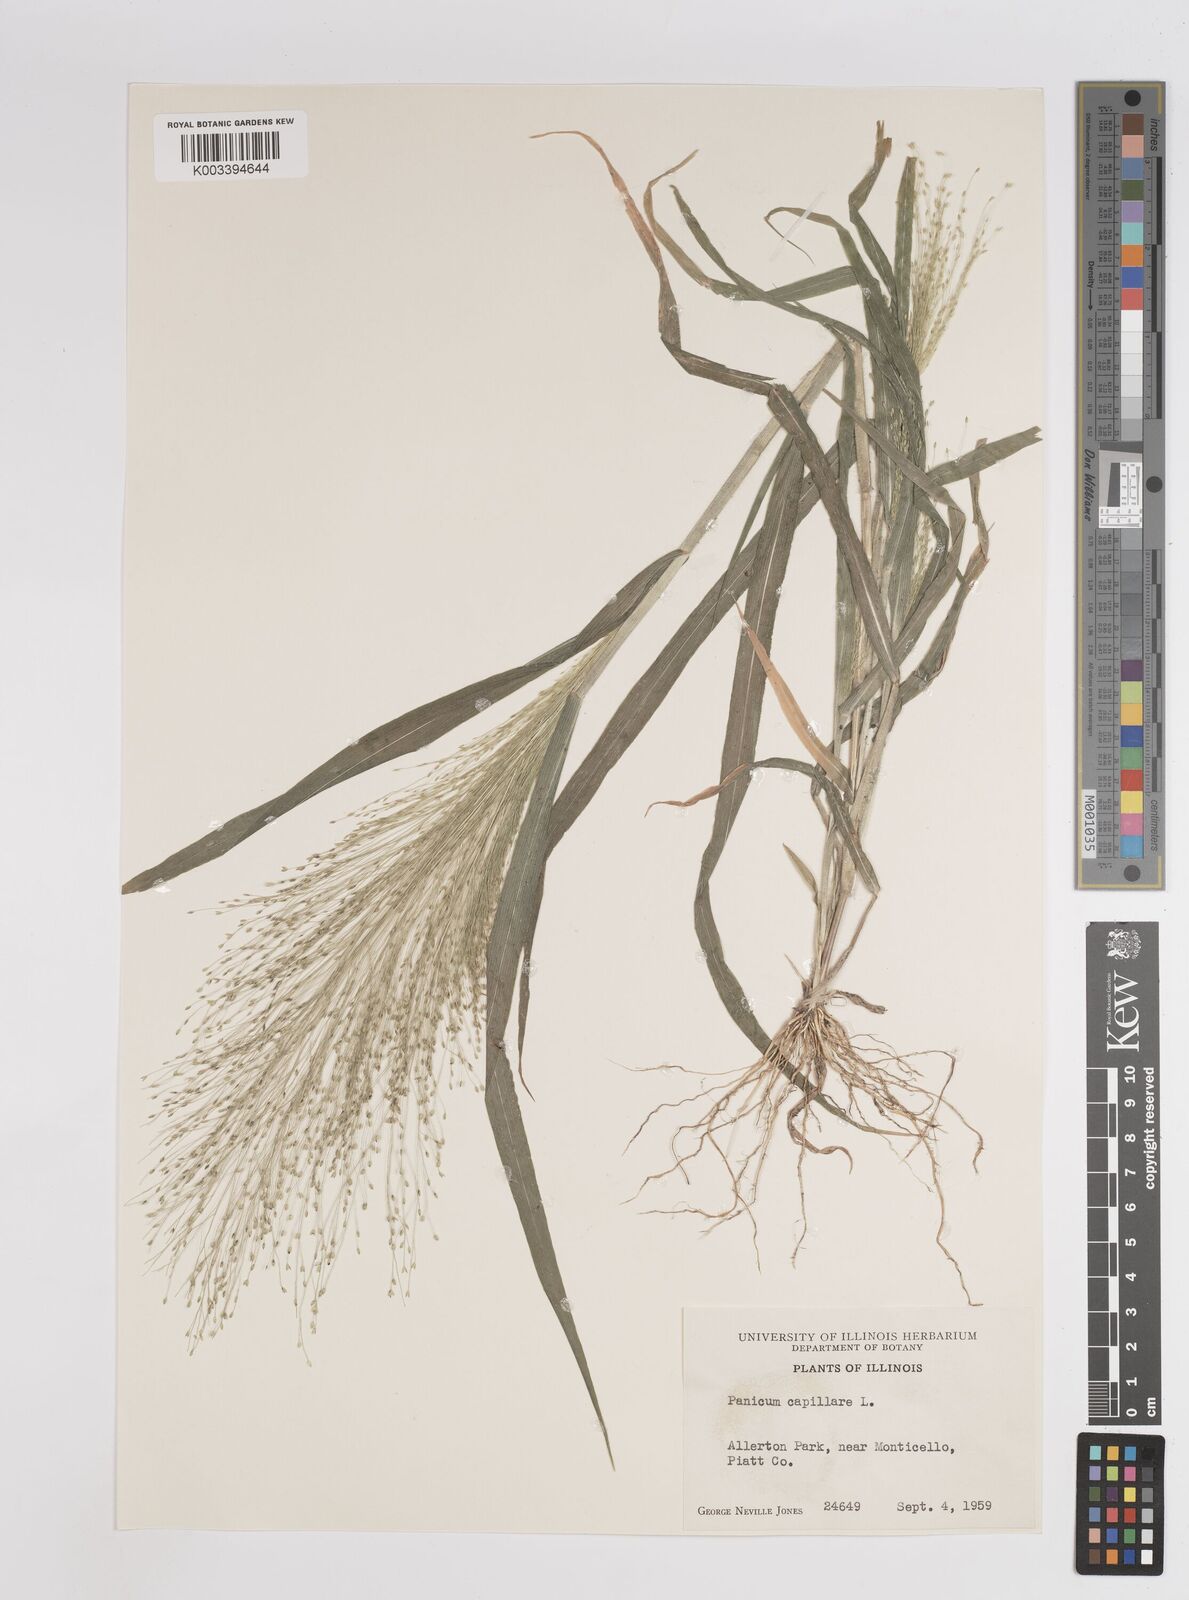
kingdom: Plantae
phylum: Tracheophyta
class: Liliopsida
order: Poales
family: Poaceae
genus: Panicum
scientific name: Panicum capillare
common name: Witch-grass
